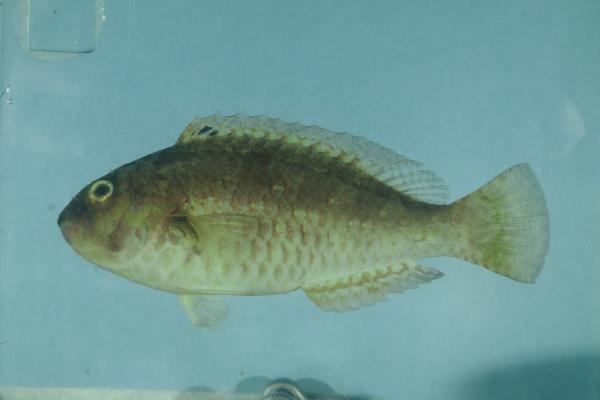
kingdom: Animalia
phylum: Chordata
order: Perciformes
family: Scaridae
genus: Calotomus
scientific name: Calotomus spinidens
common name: Raggedtooth parrotfish
